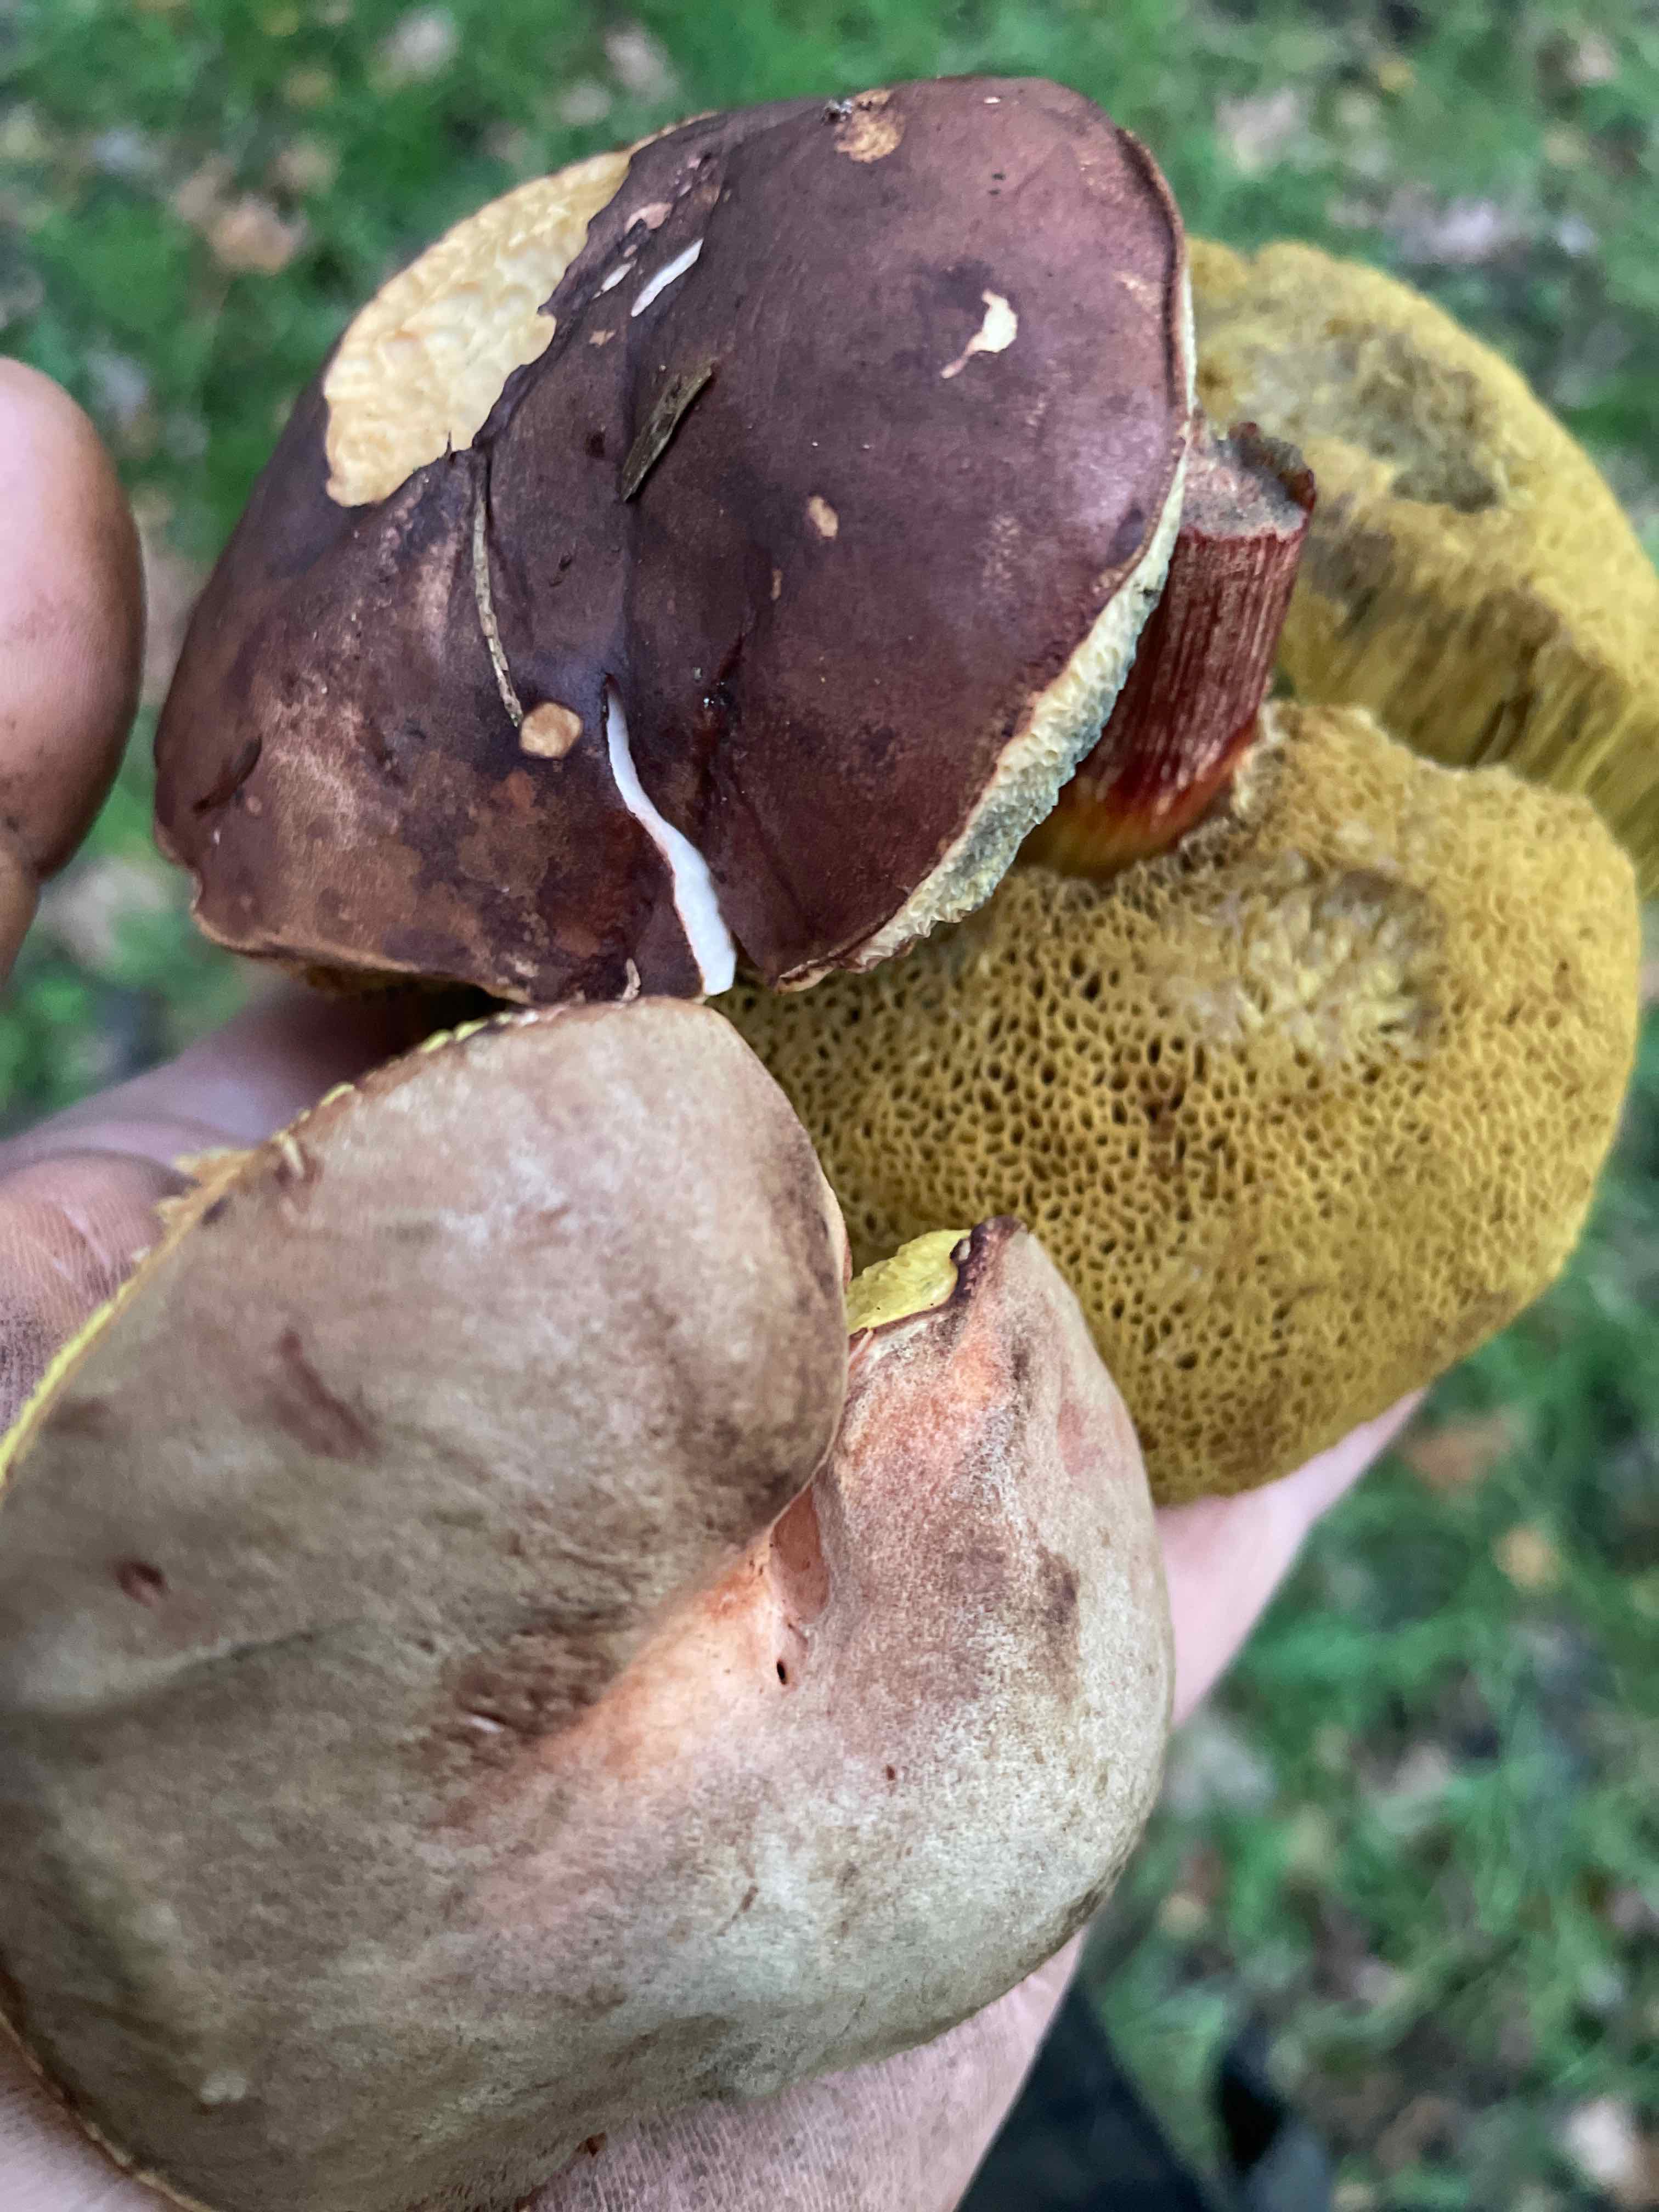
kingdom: Fungi
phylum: Basidiomycota
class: Agaricomycetes
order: Boletales
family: Boletaceae
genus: Imleria
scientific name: Imleria badia
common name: brunstokket rørhat
